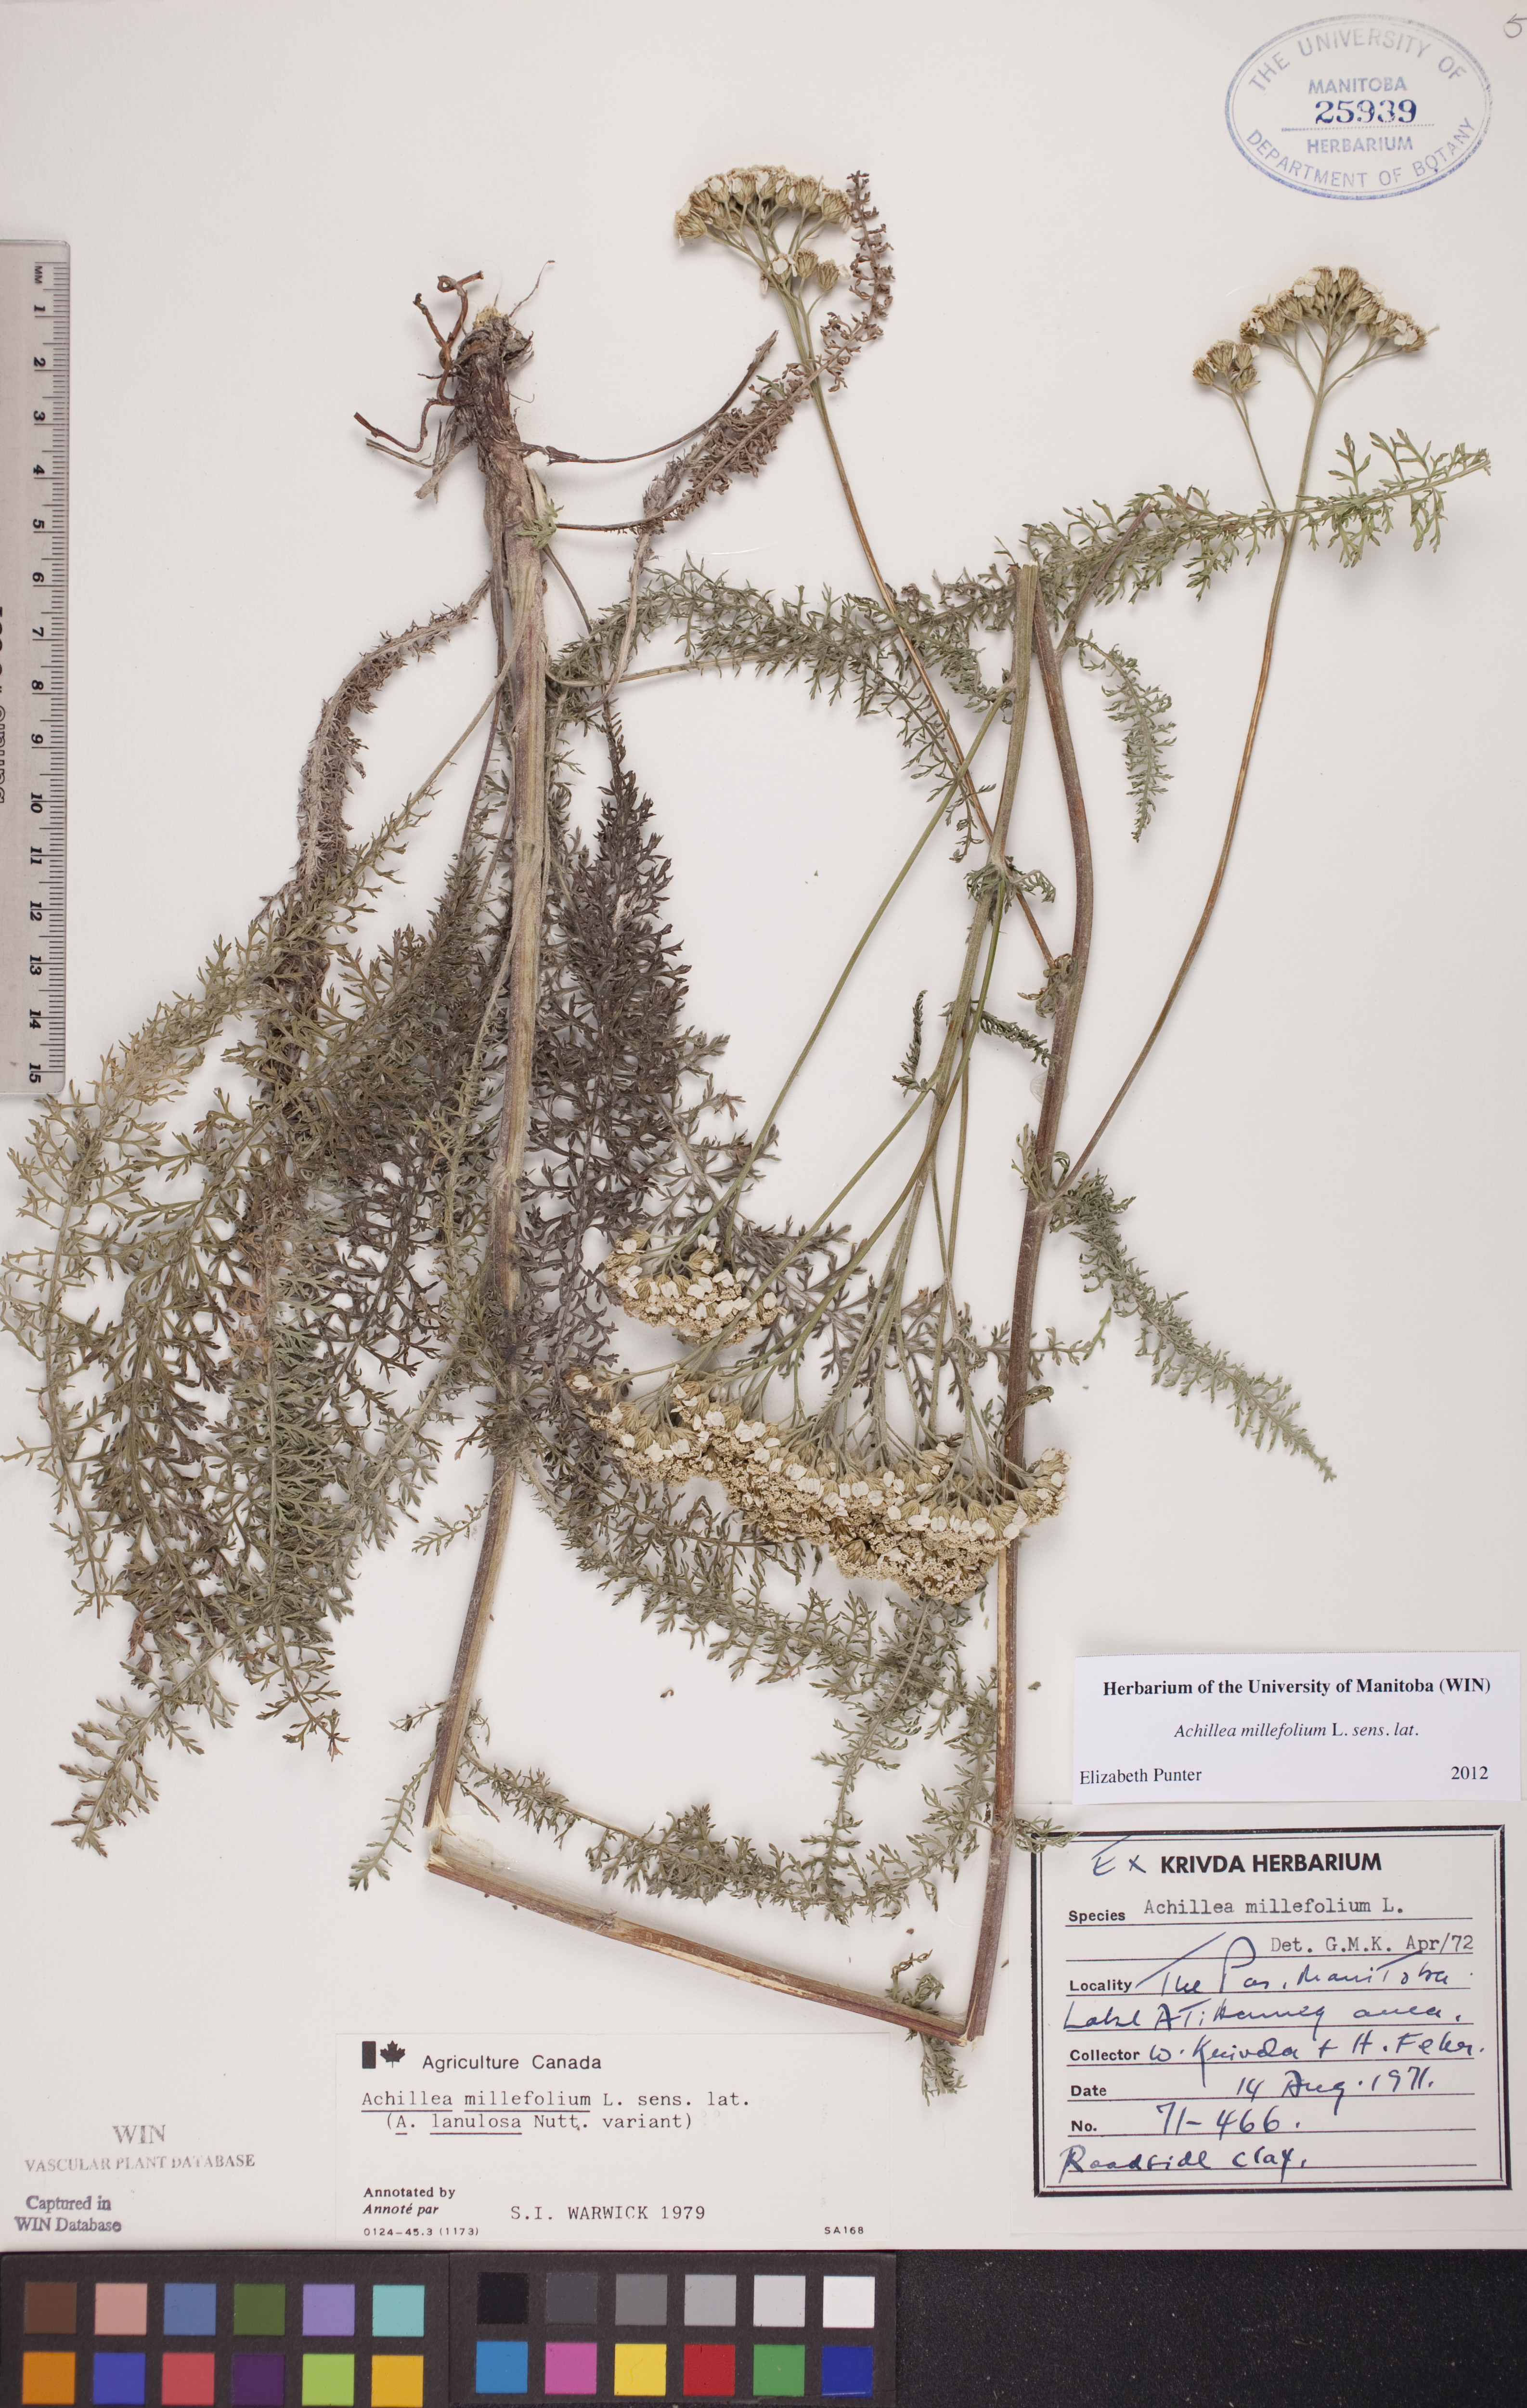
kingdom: Plantae
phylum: Tracheophyta
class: Magnoliopsida
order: Asterales
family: Asteraceae
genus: Achillea
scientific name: Achillea millefolium
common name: Yarrow
